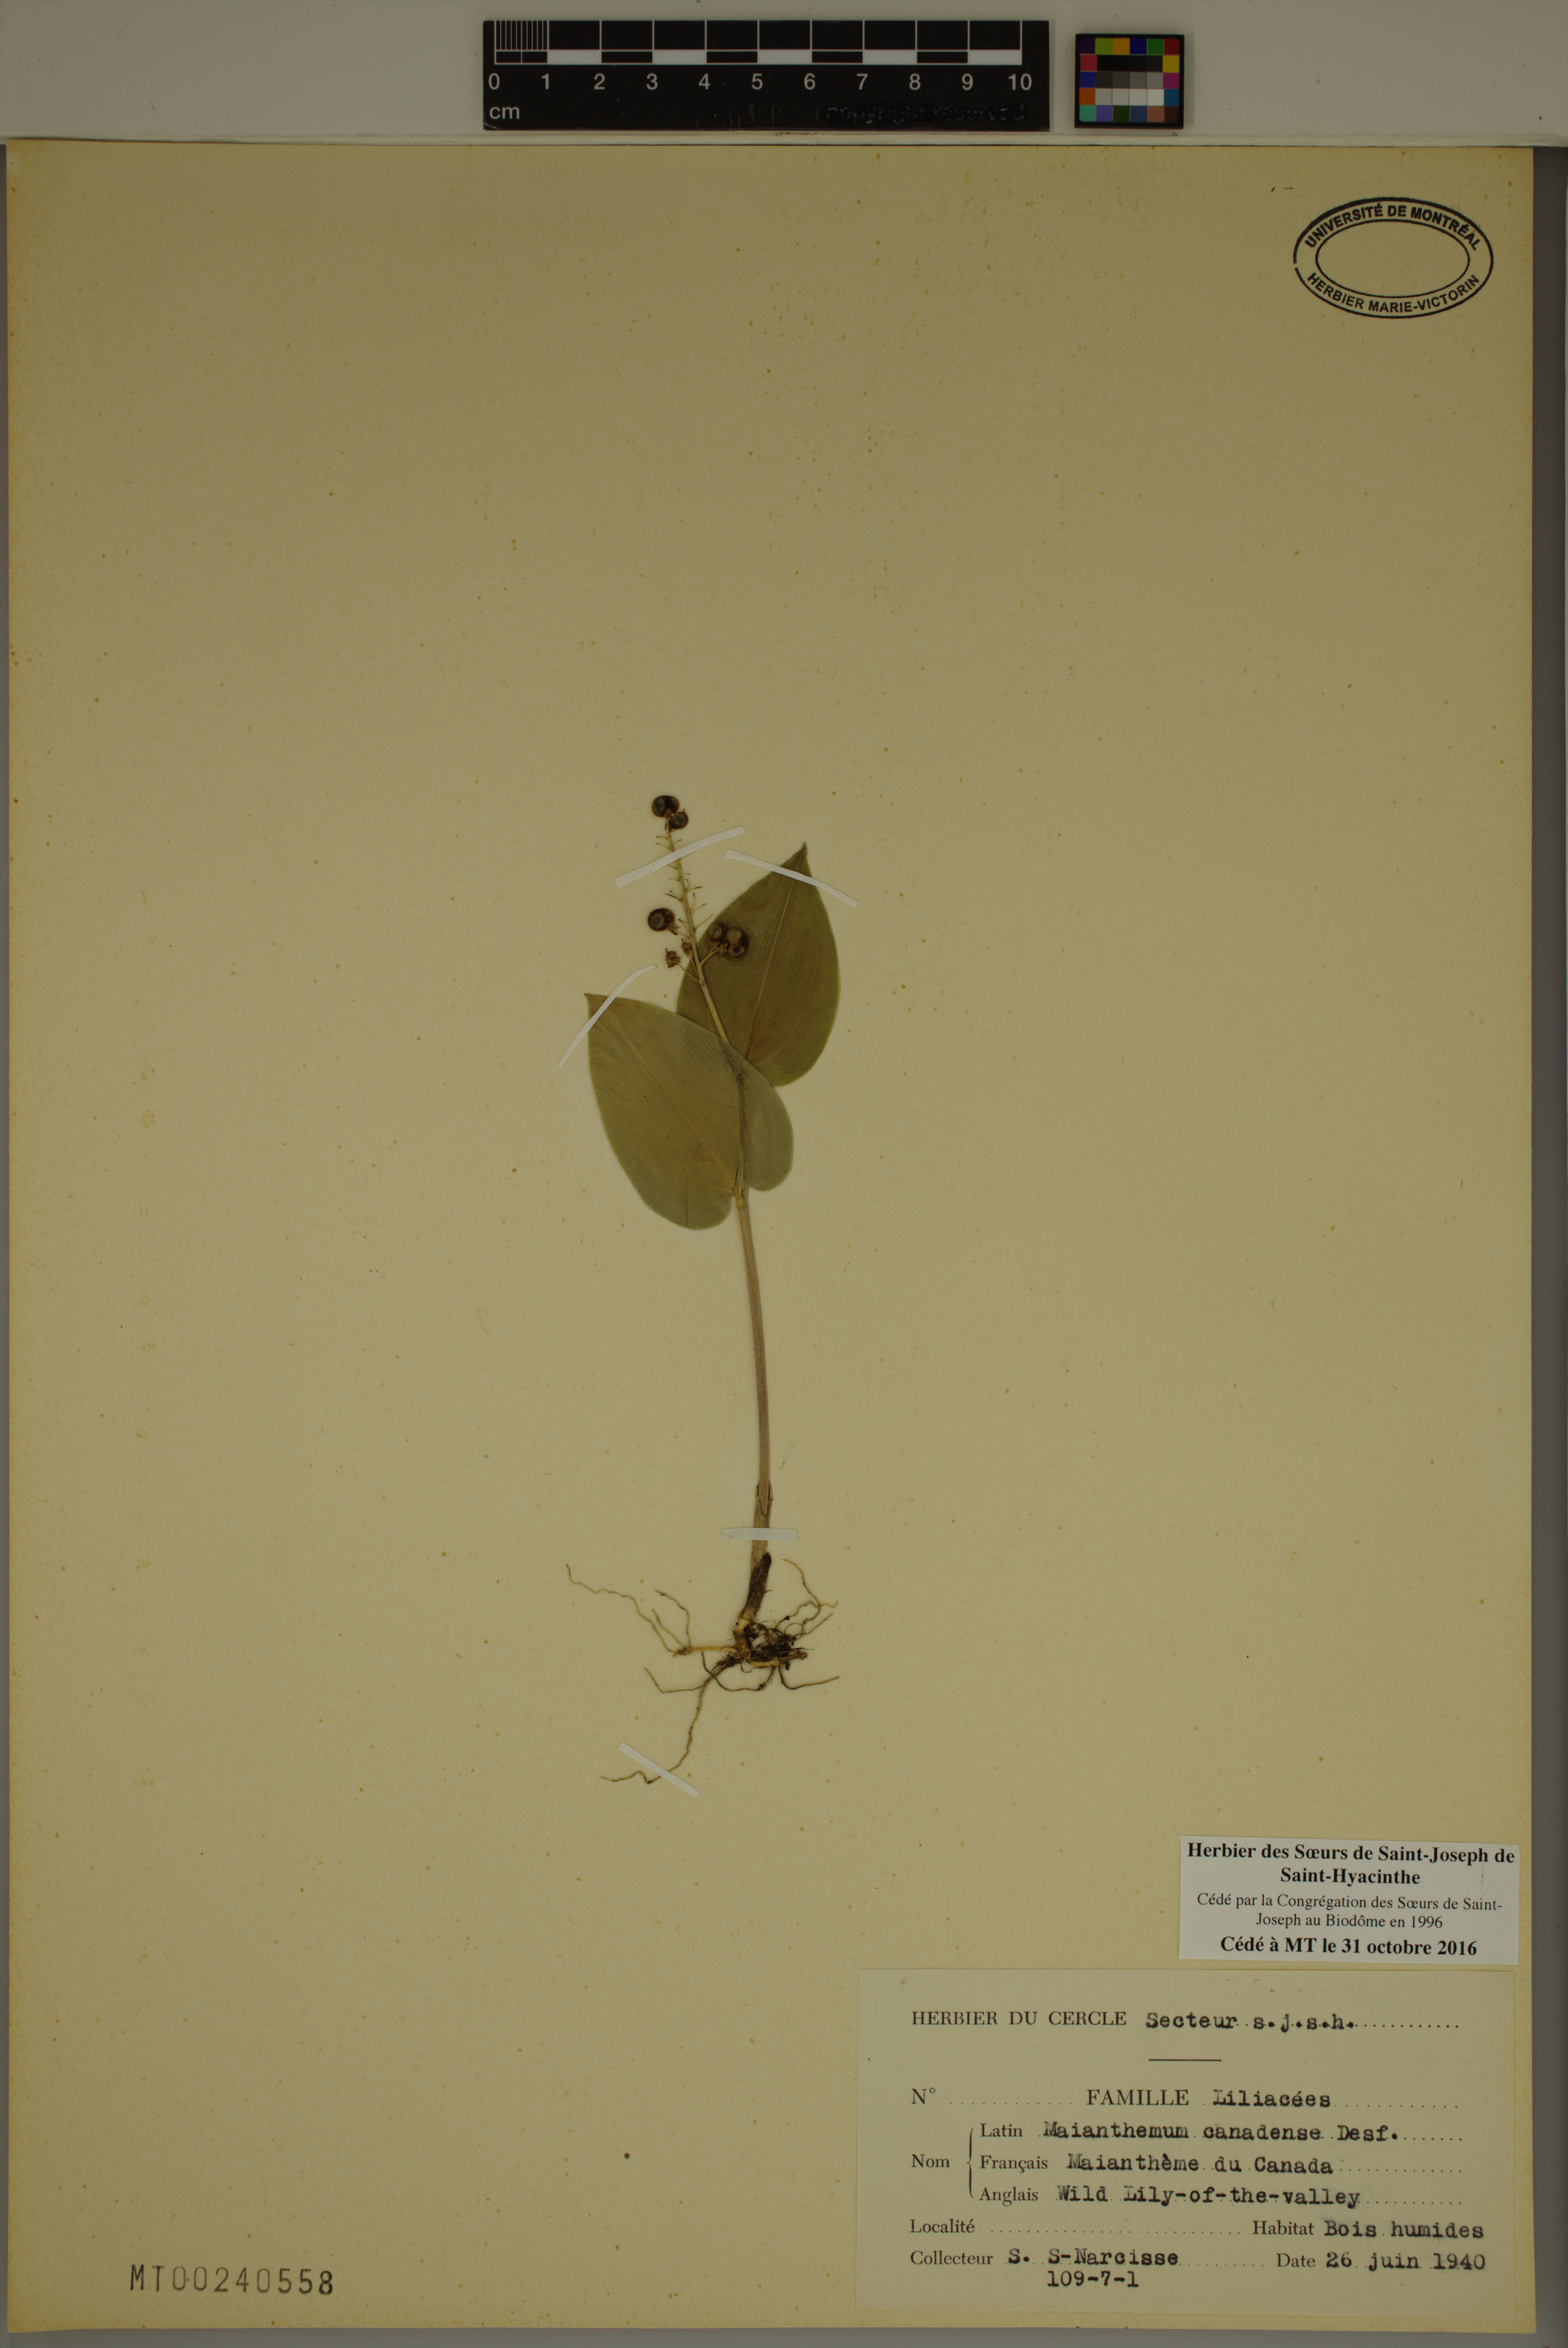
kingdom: Plantae
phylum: Tracheophyta
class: Liliopsida
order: Asparagales
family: Asparagaceae
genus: Maianthemum
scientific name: Maianthemum canadense
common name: False lily-of-the-valley
